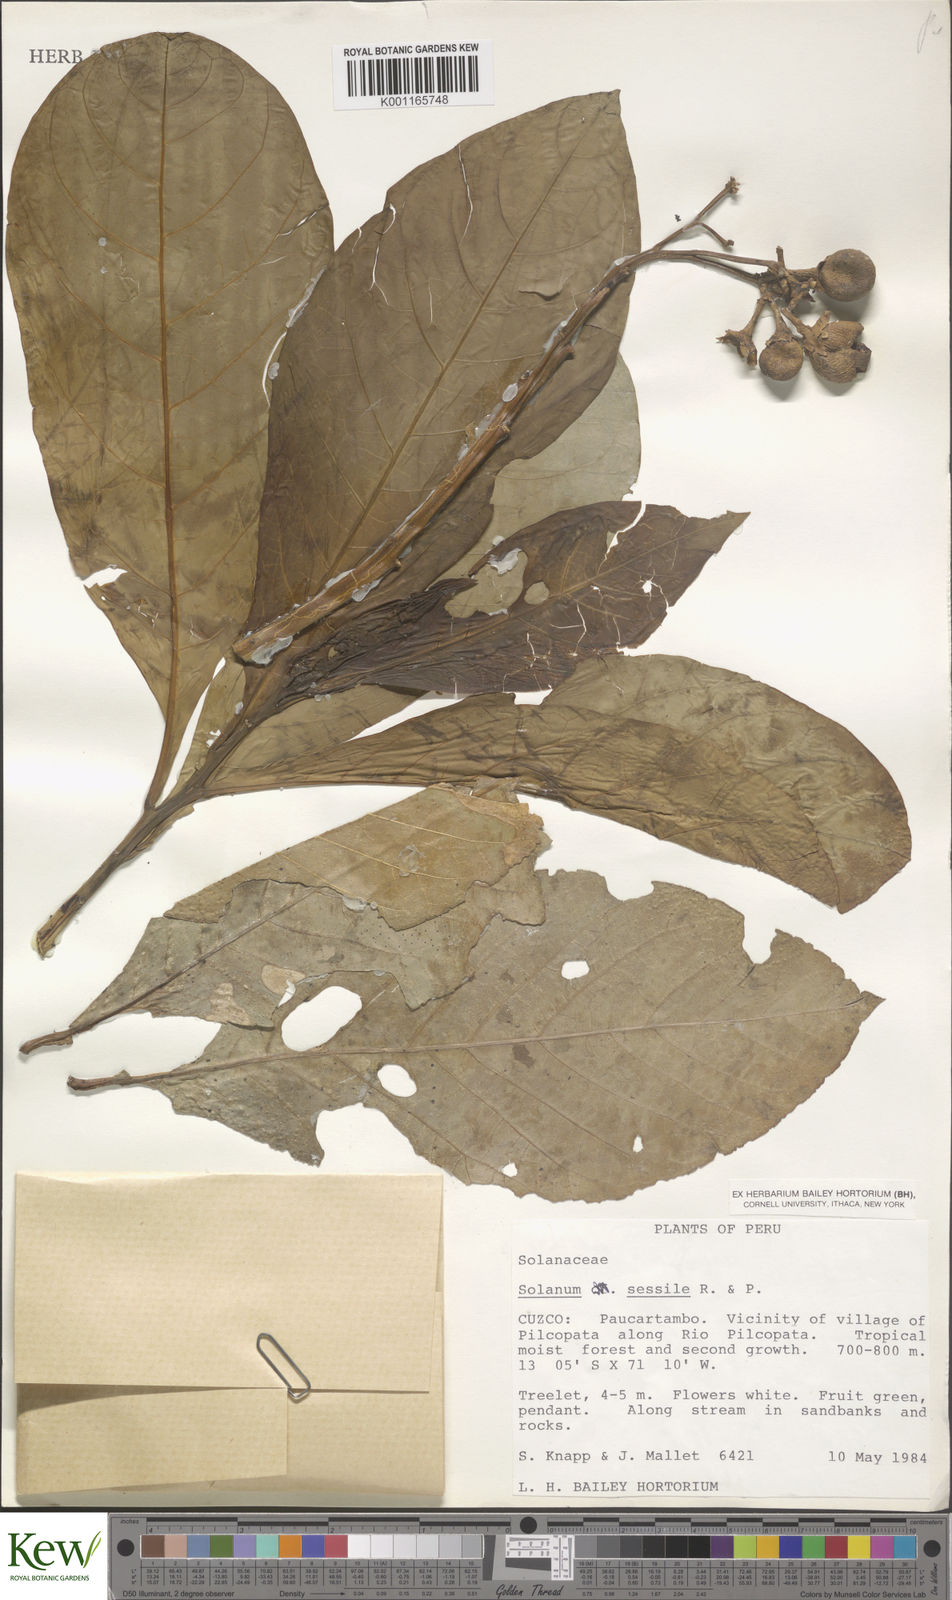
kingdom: Plantae
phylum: Tracheophyta
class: Magnoliopsida
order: Solanales
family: Solanaceae
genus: Solanum
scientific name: Solanum sessile
